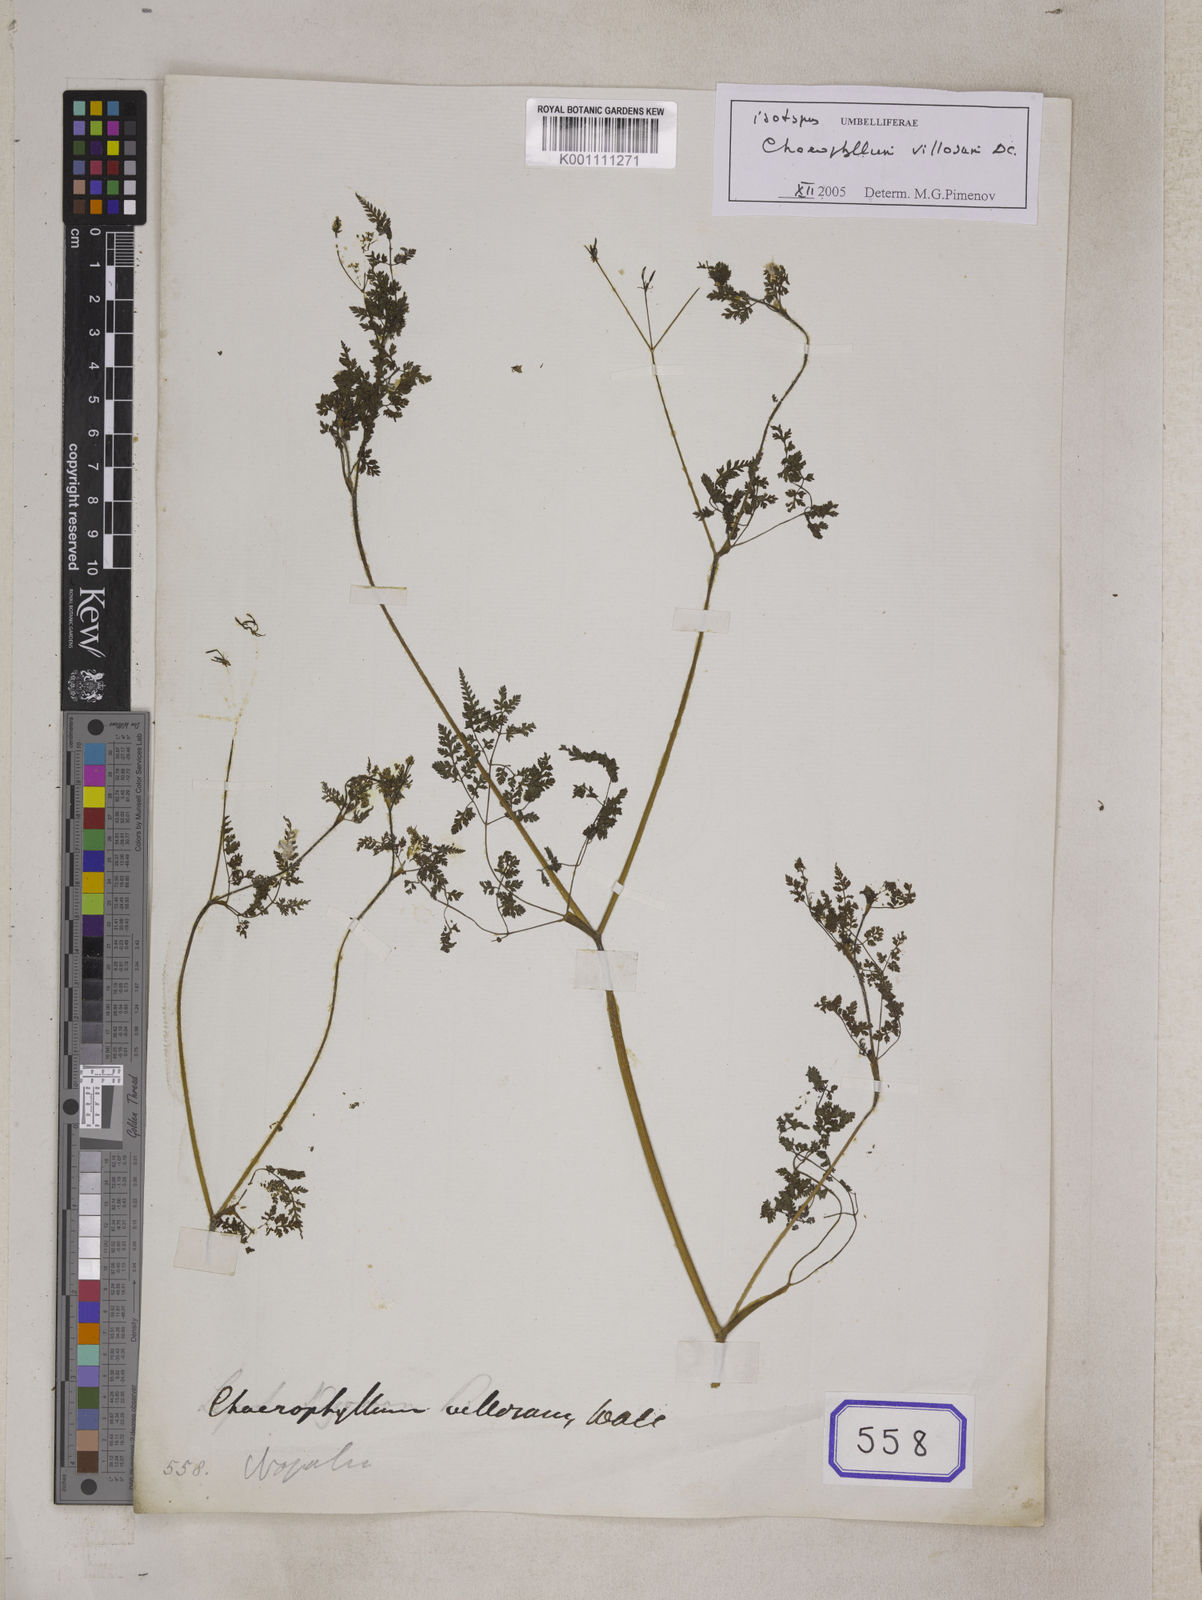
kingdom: Plantae
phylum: Tracheophyta
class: Magnoliopsida
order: Apiales
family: Apiaceae
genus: Chaerophyllum
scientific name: Chaerophyllum
